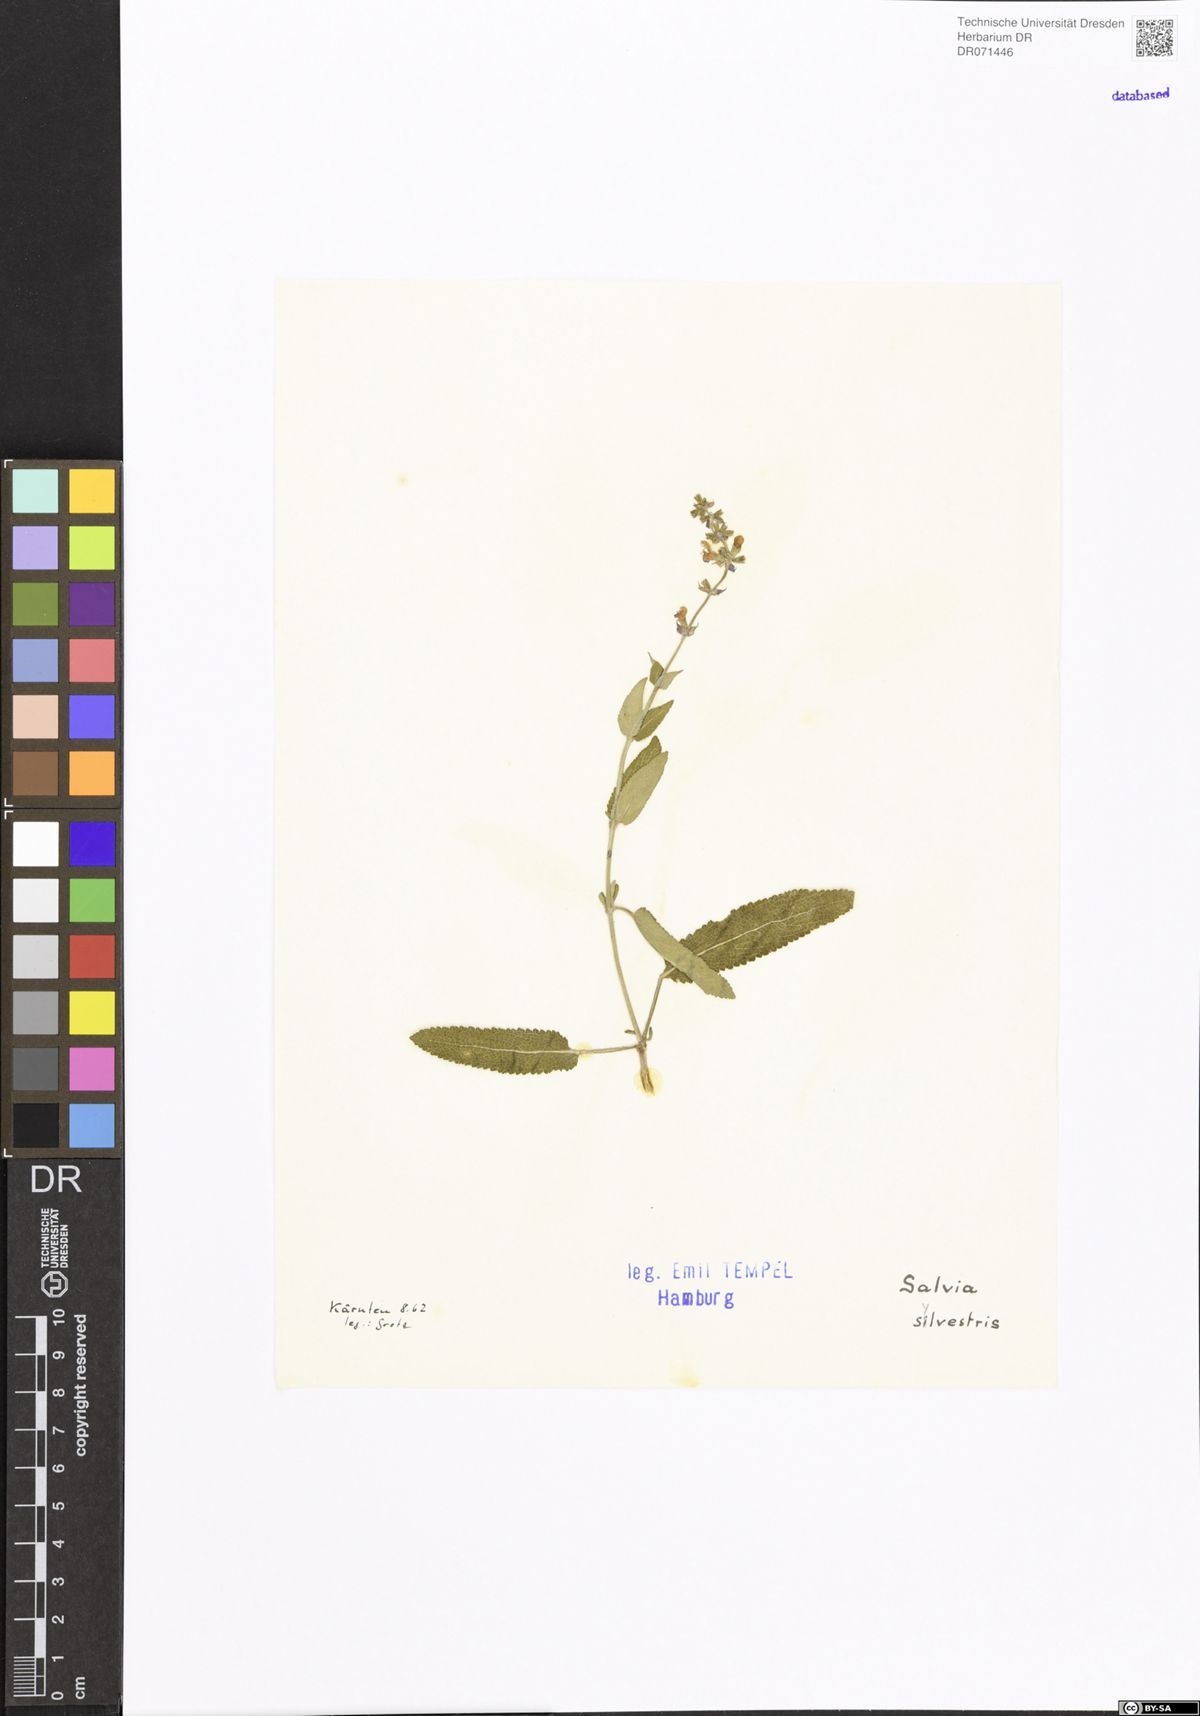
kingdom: Plantae
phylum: Tracheophyta
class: Magnoliopsida
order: Lamiales
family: Lamiaceae
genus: Salvia
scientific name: Salvia sylvestris
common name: Woodland sage
